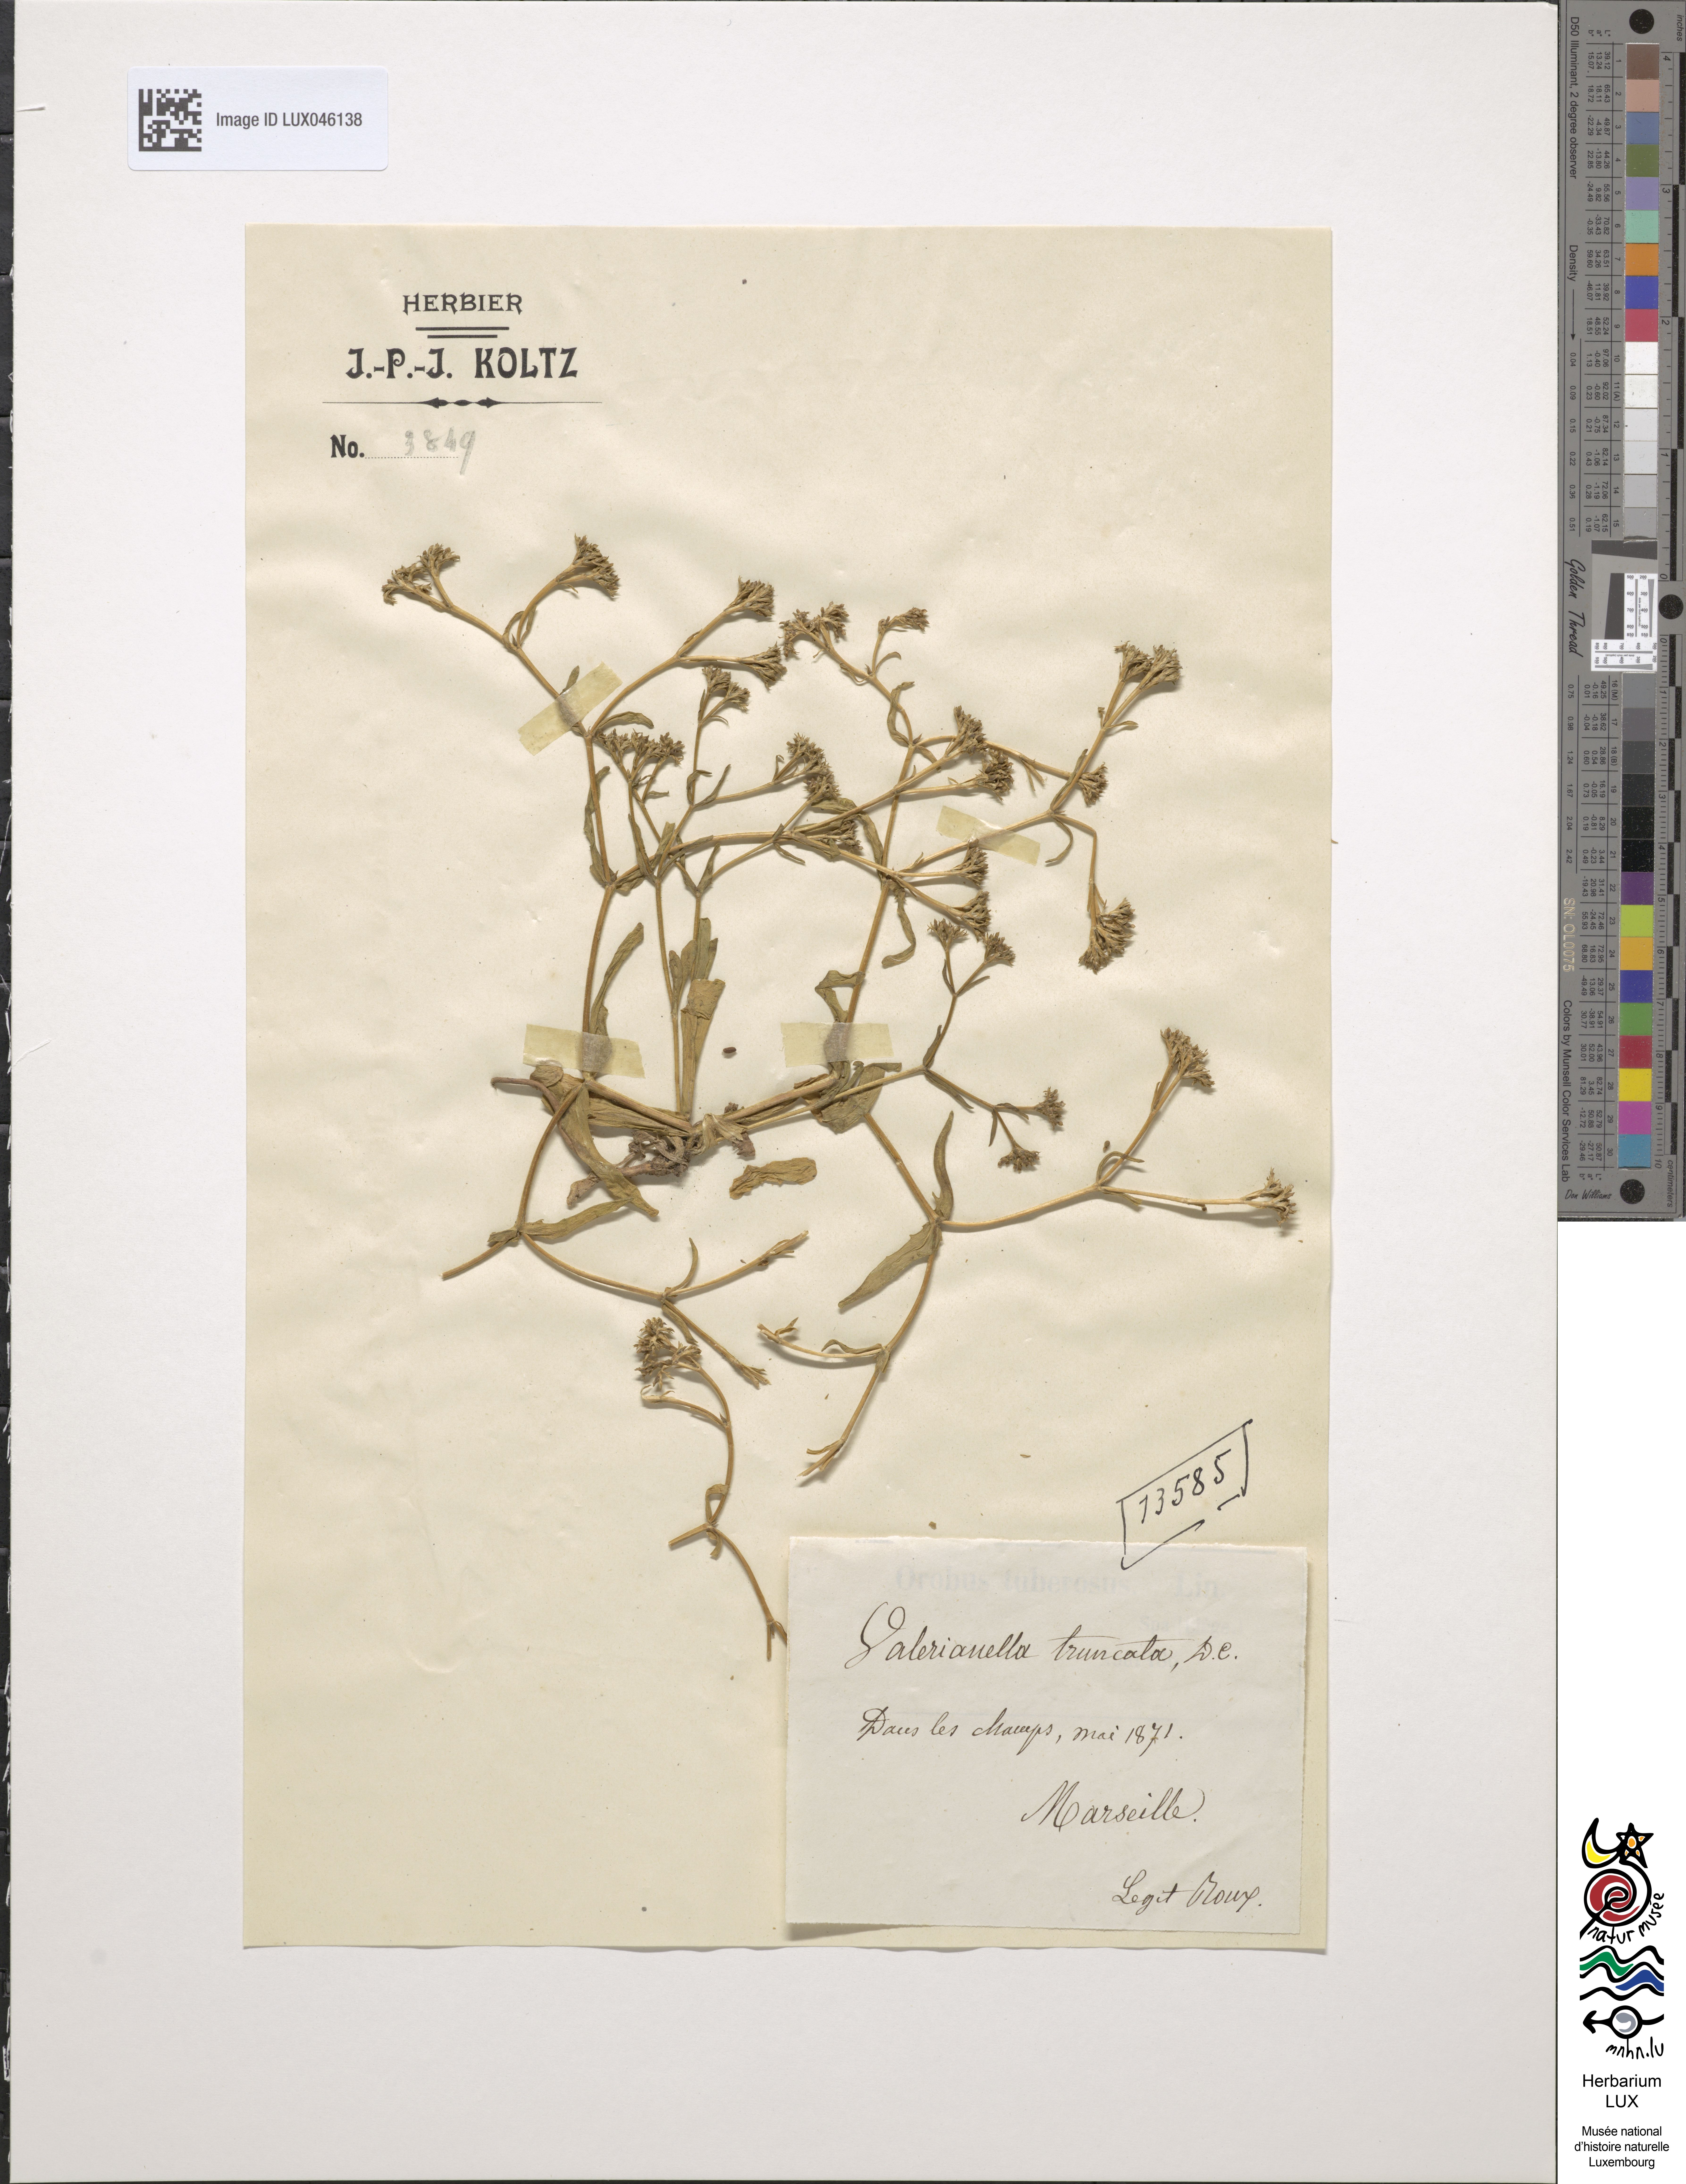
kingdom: Plantae
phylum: Tracheophyta
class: Magnoliopsida
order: Dipsacales
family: Caprifoliaceae
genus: Valerianella
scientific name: Valerianella eriocarpa
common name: Hairy-fruited cornsalad
